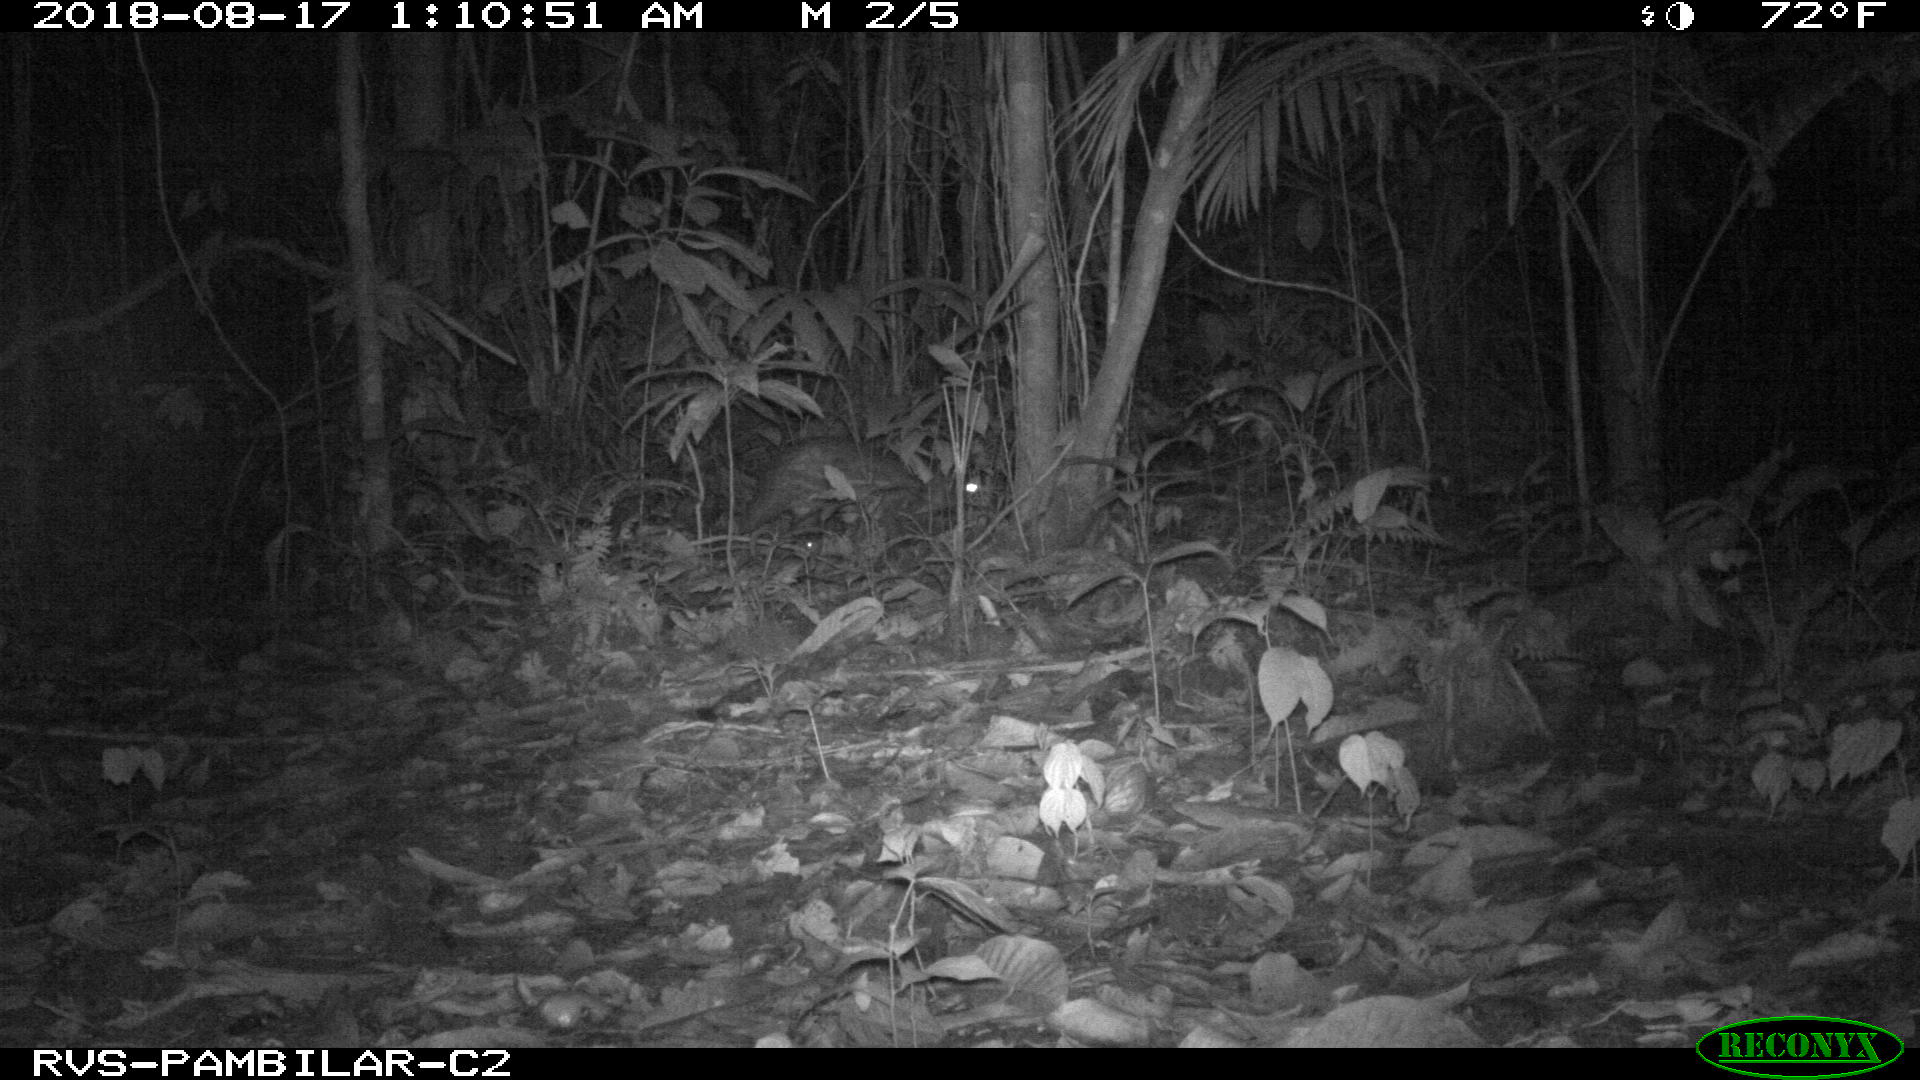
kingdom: Animalia
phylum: Chordata
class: Mammalia
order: Rodentia
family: Cuniculidae
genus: Cuniculus
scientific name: Cuniculus paca
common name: Lowland paca
